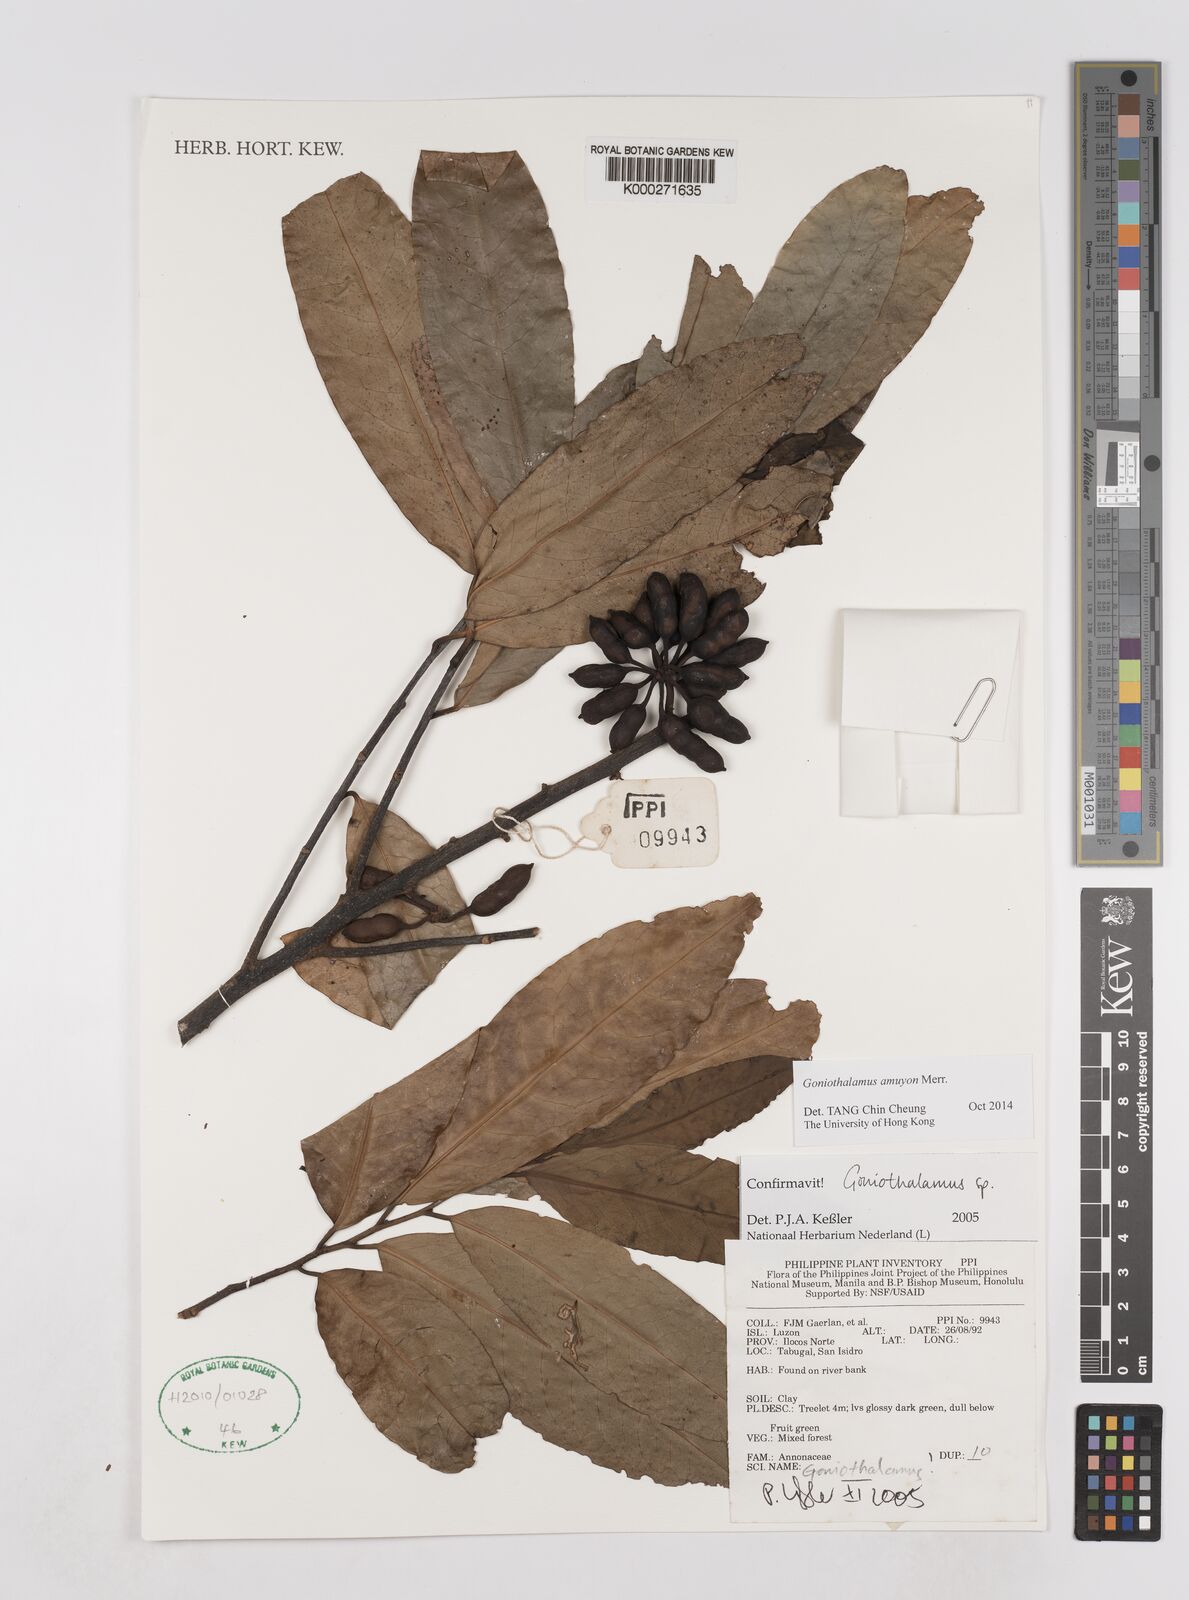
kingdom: Plantae
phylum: Tracheophyta
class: Magnoliopsida
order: Magnoliales
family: Annonaceae
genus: Goniothalamus
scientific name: Goniothalamus
